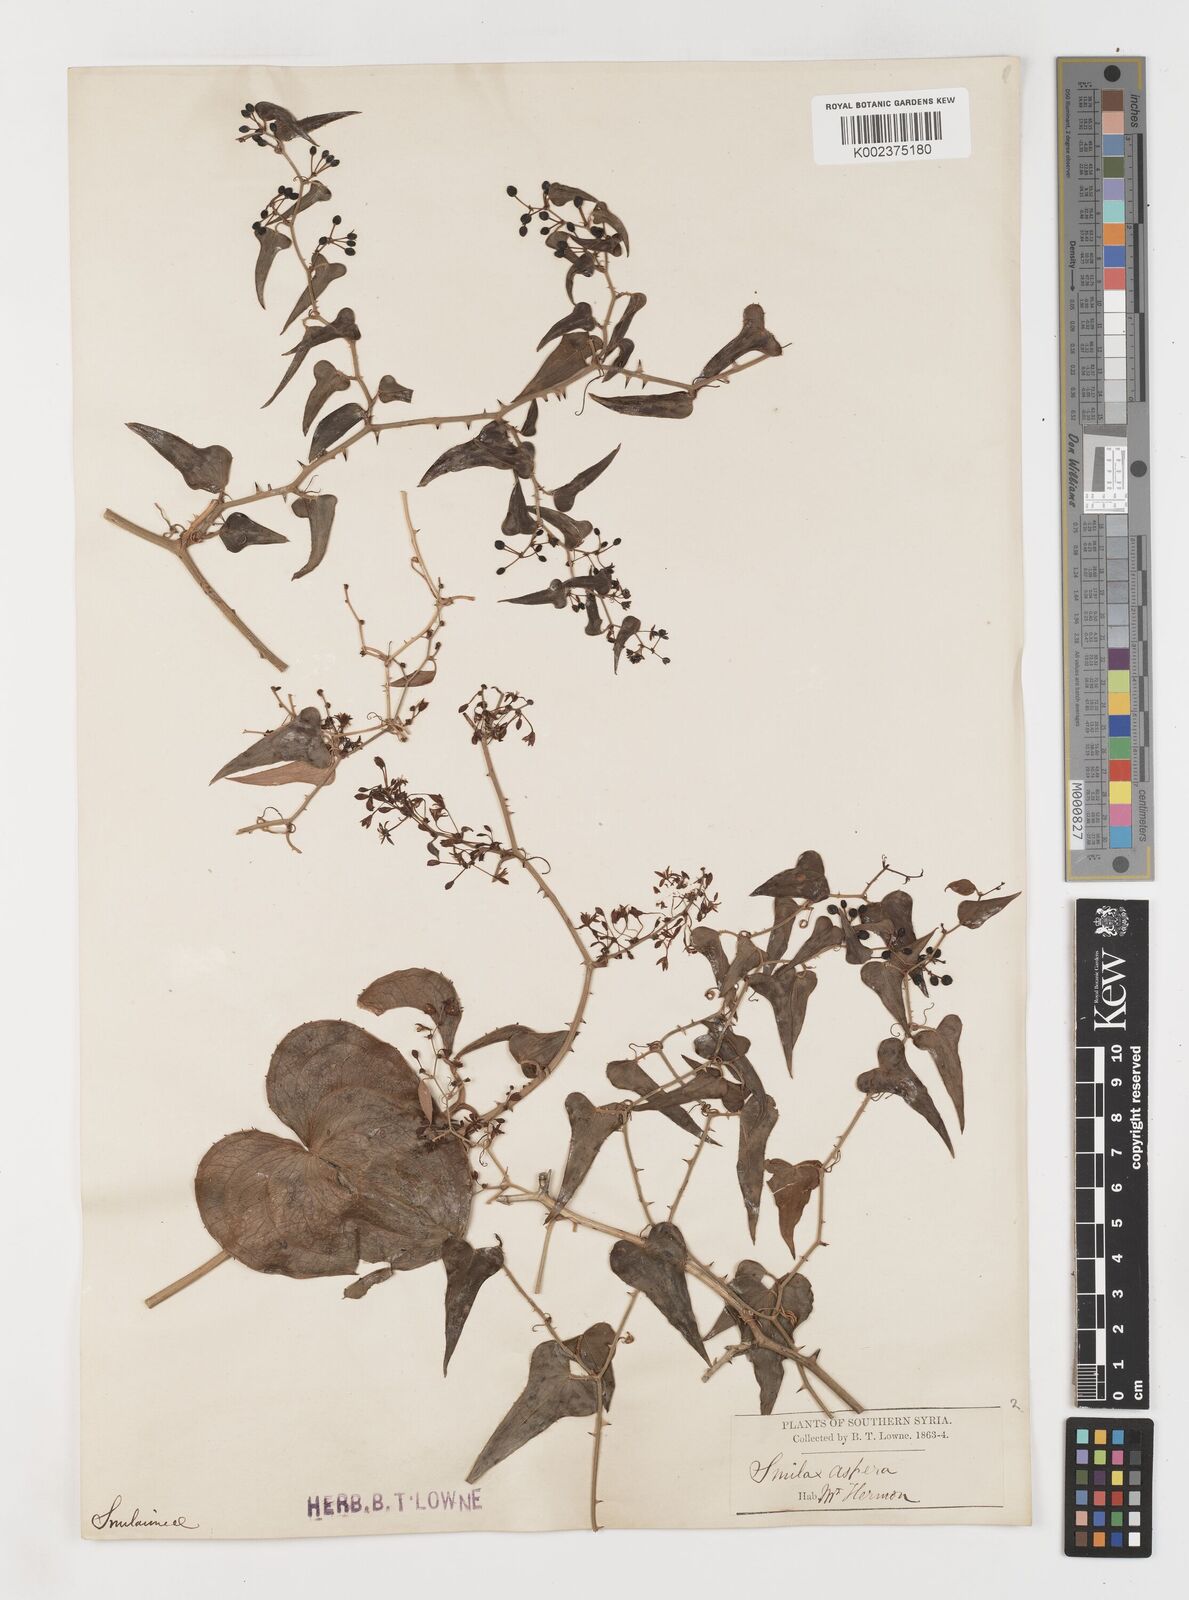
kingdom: Plantae
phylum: Tracheophyta
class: Liliopsida
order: Liliales
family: Smilacaceae
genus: Smilax
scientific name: Smilax aspera
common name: Common smilax
